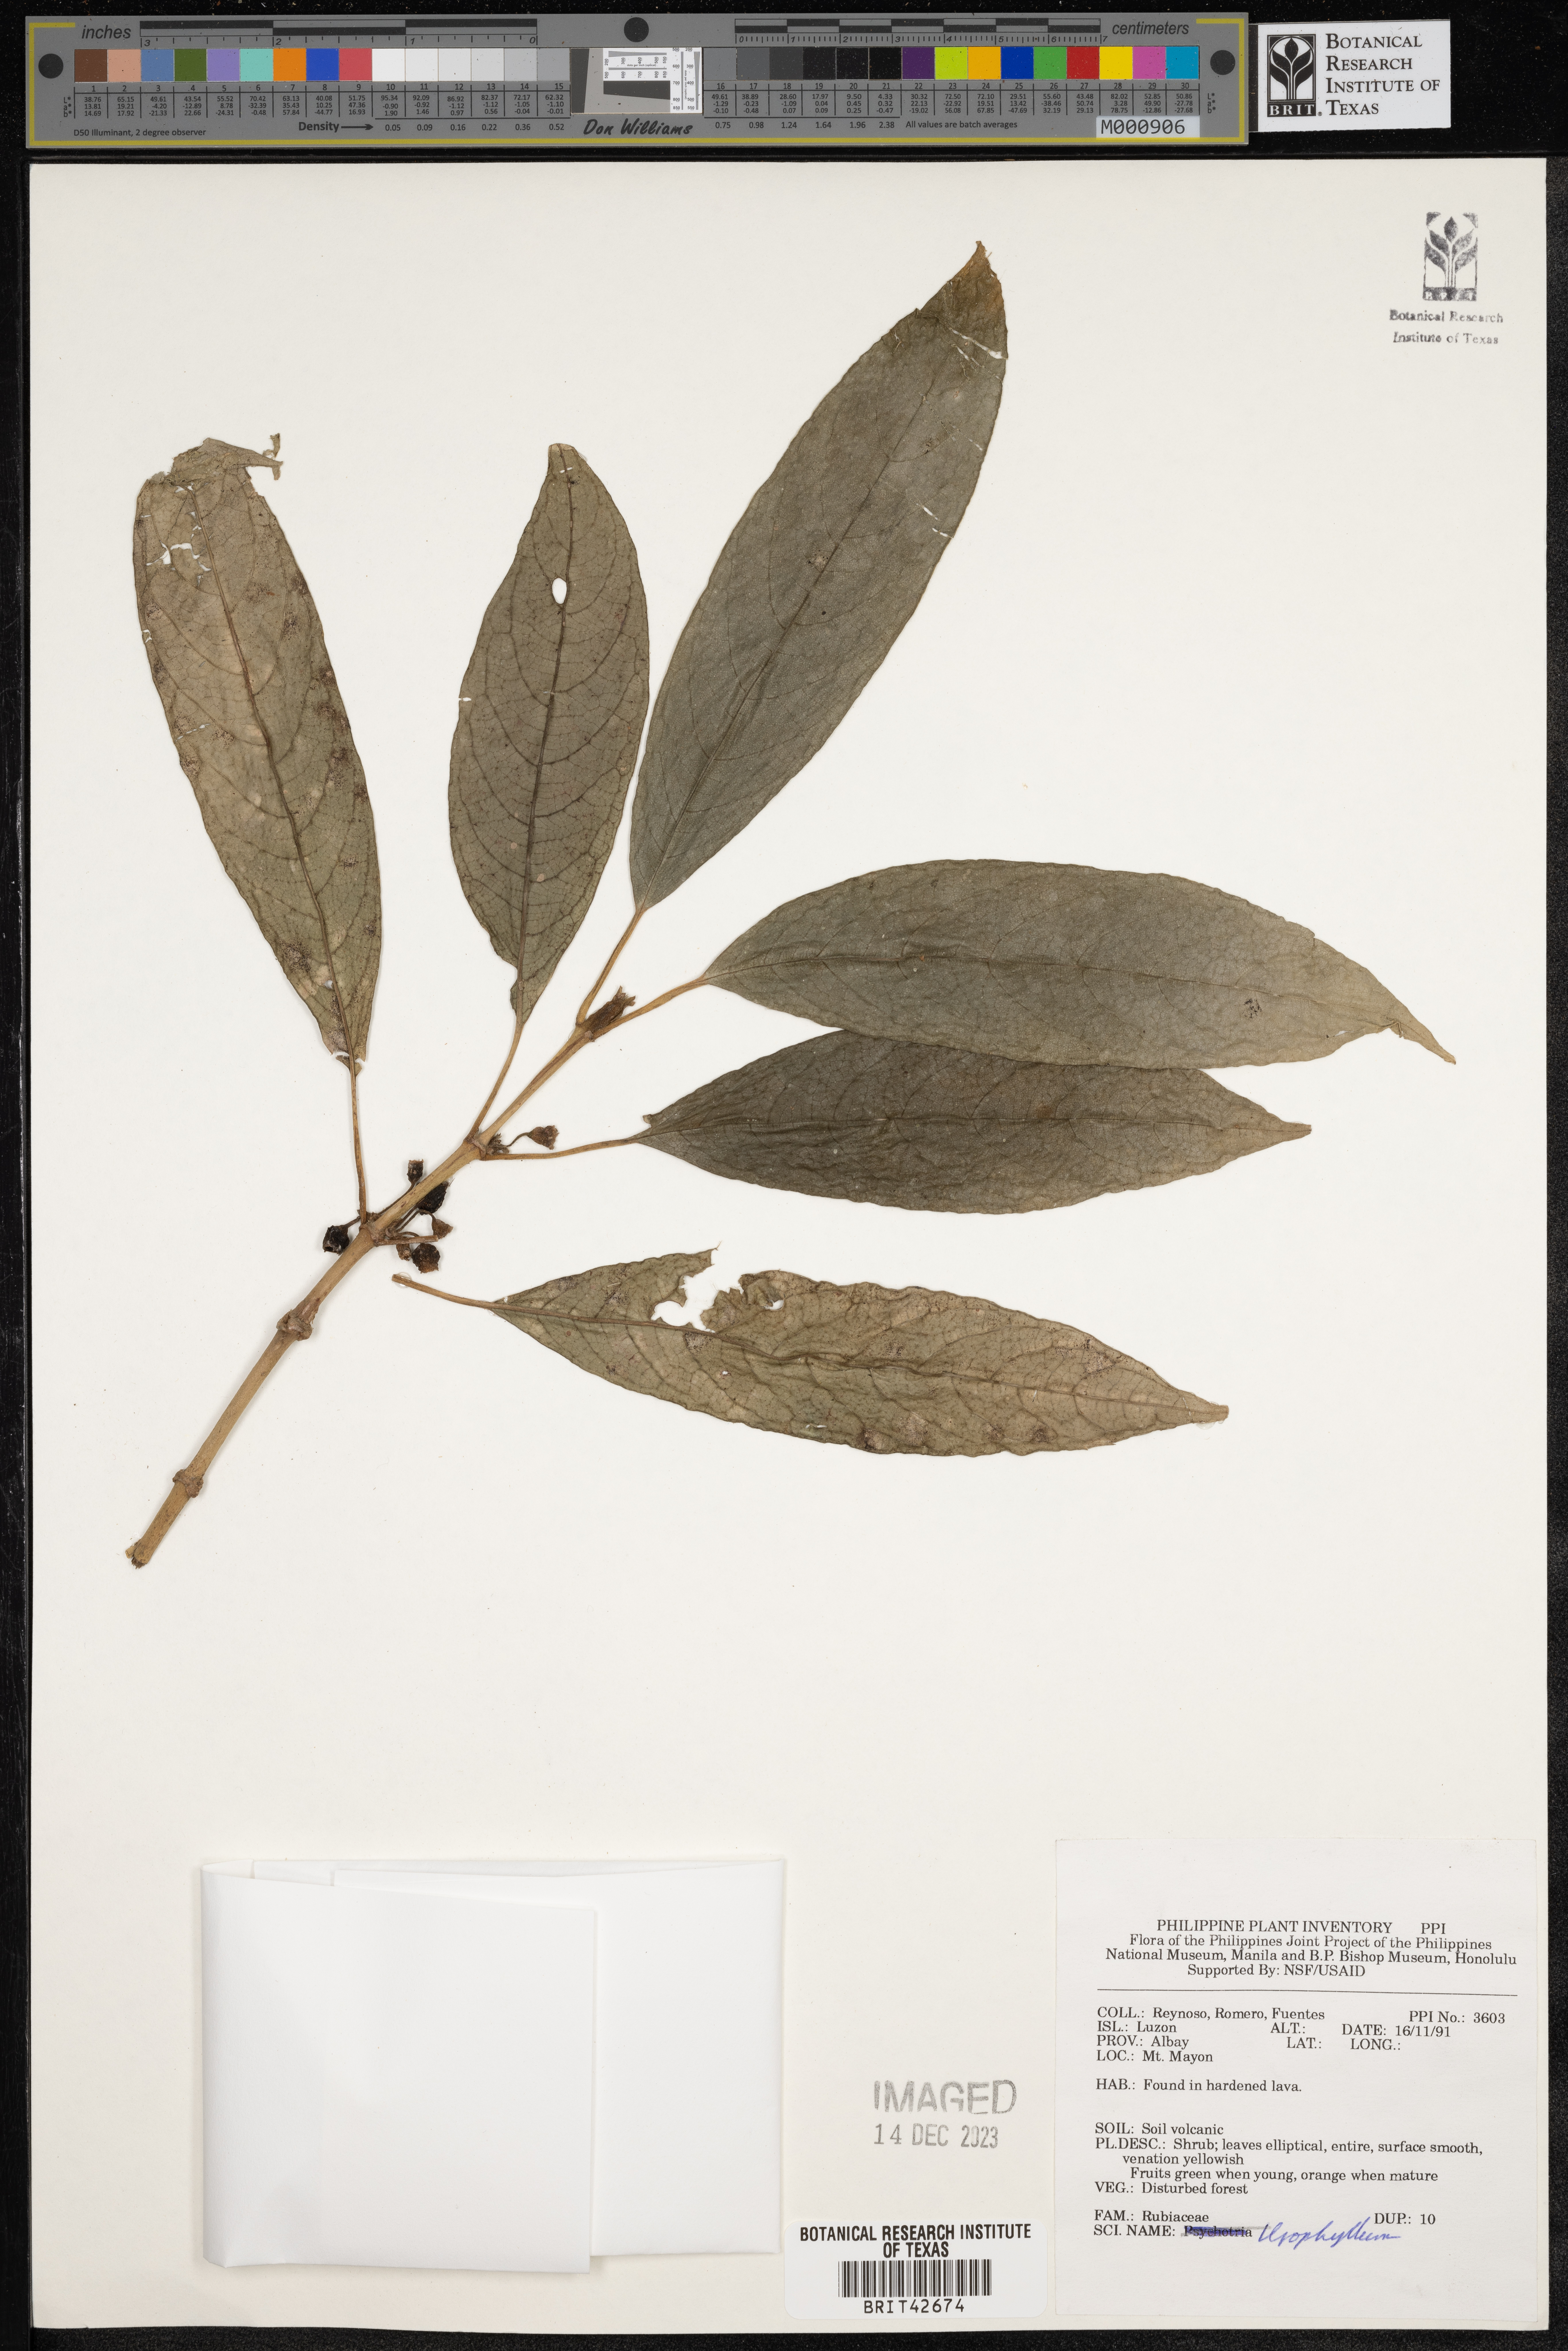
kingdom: Plantae
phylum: Tracheophyta
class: Magnoliopsida
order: Gentianales
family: Rubiaceae
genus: Urophyllum
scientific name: Urophyllum
